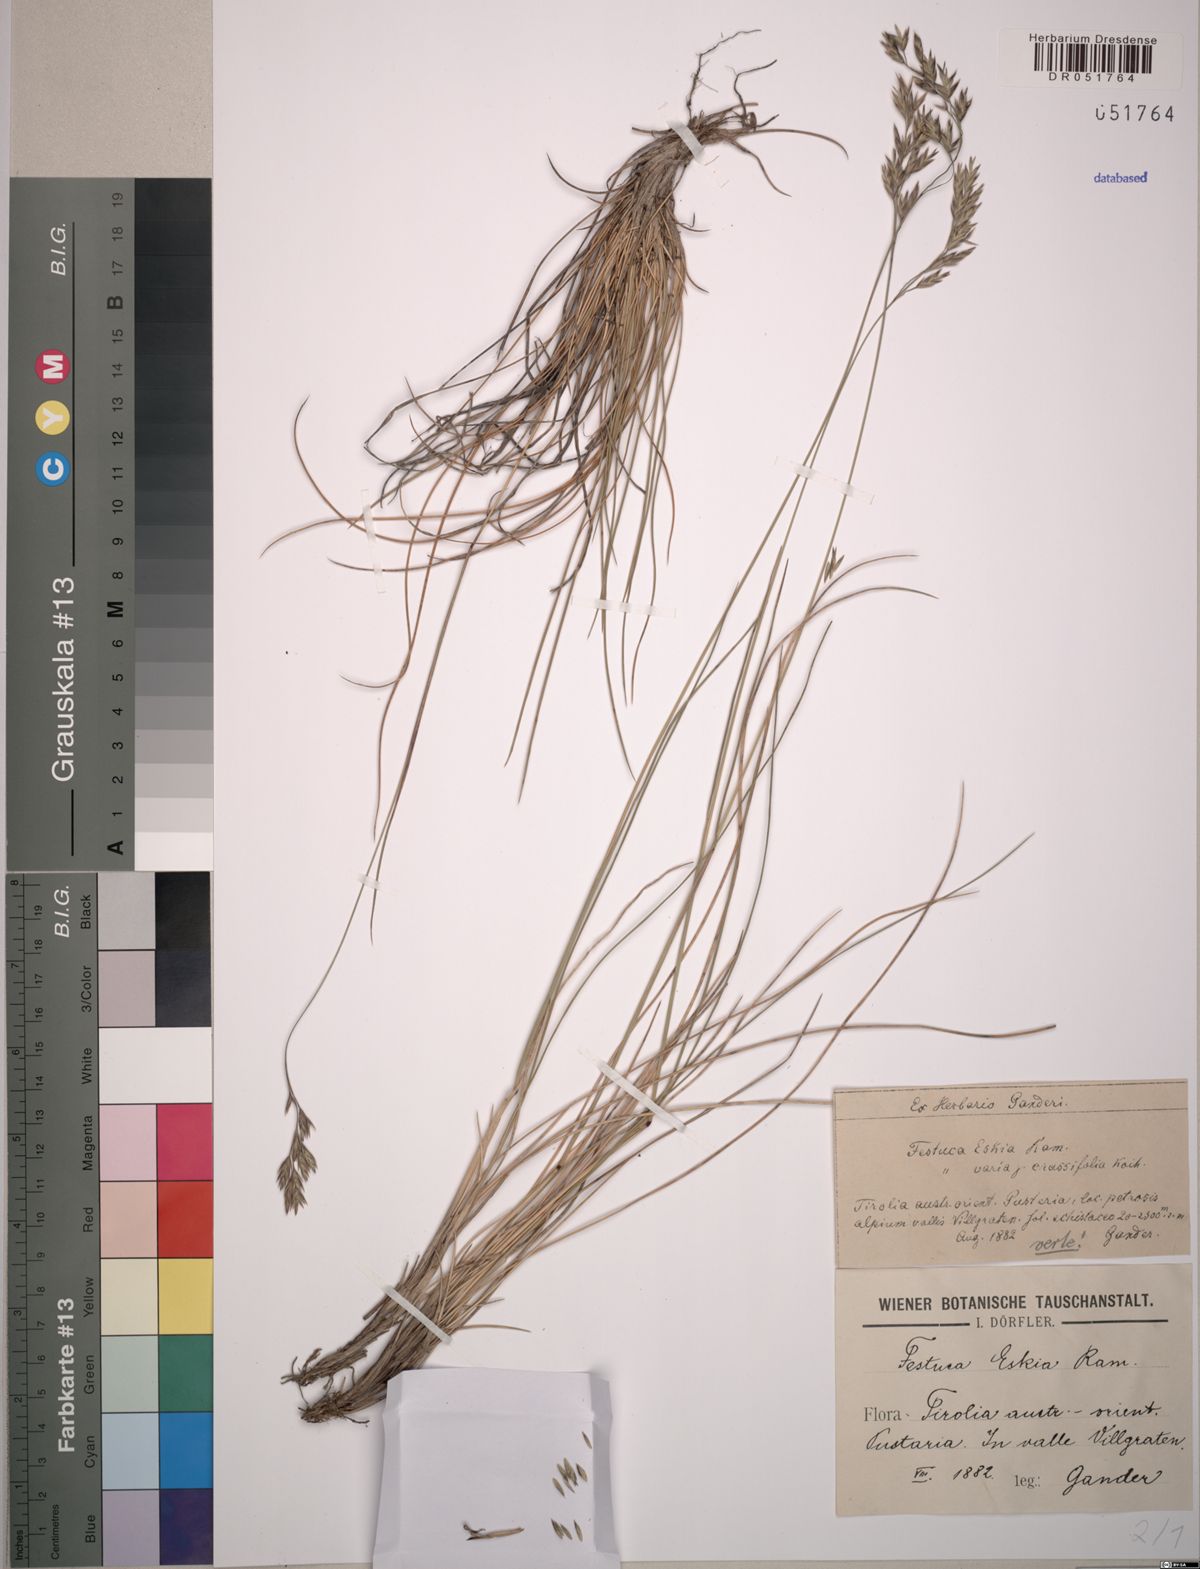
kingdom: Plantae
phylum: Tracheophyta
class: Liliopsida
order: Poales
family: Poaceae
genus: Festuca
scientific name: Festuca eskia
